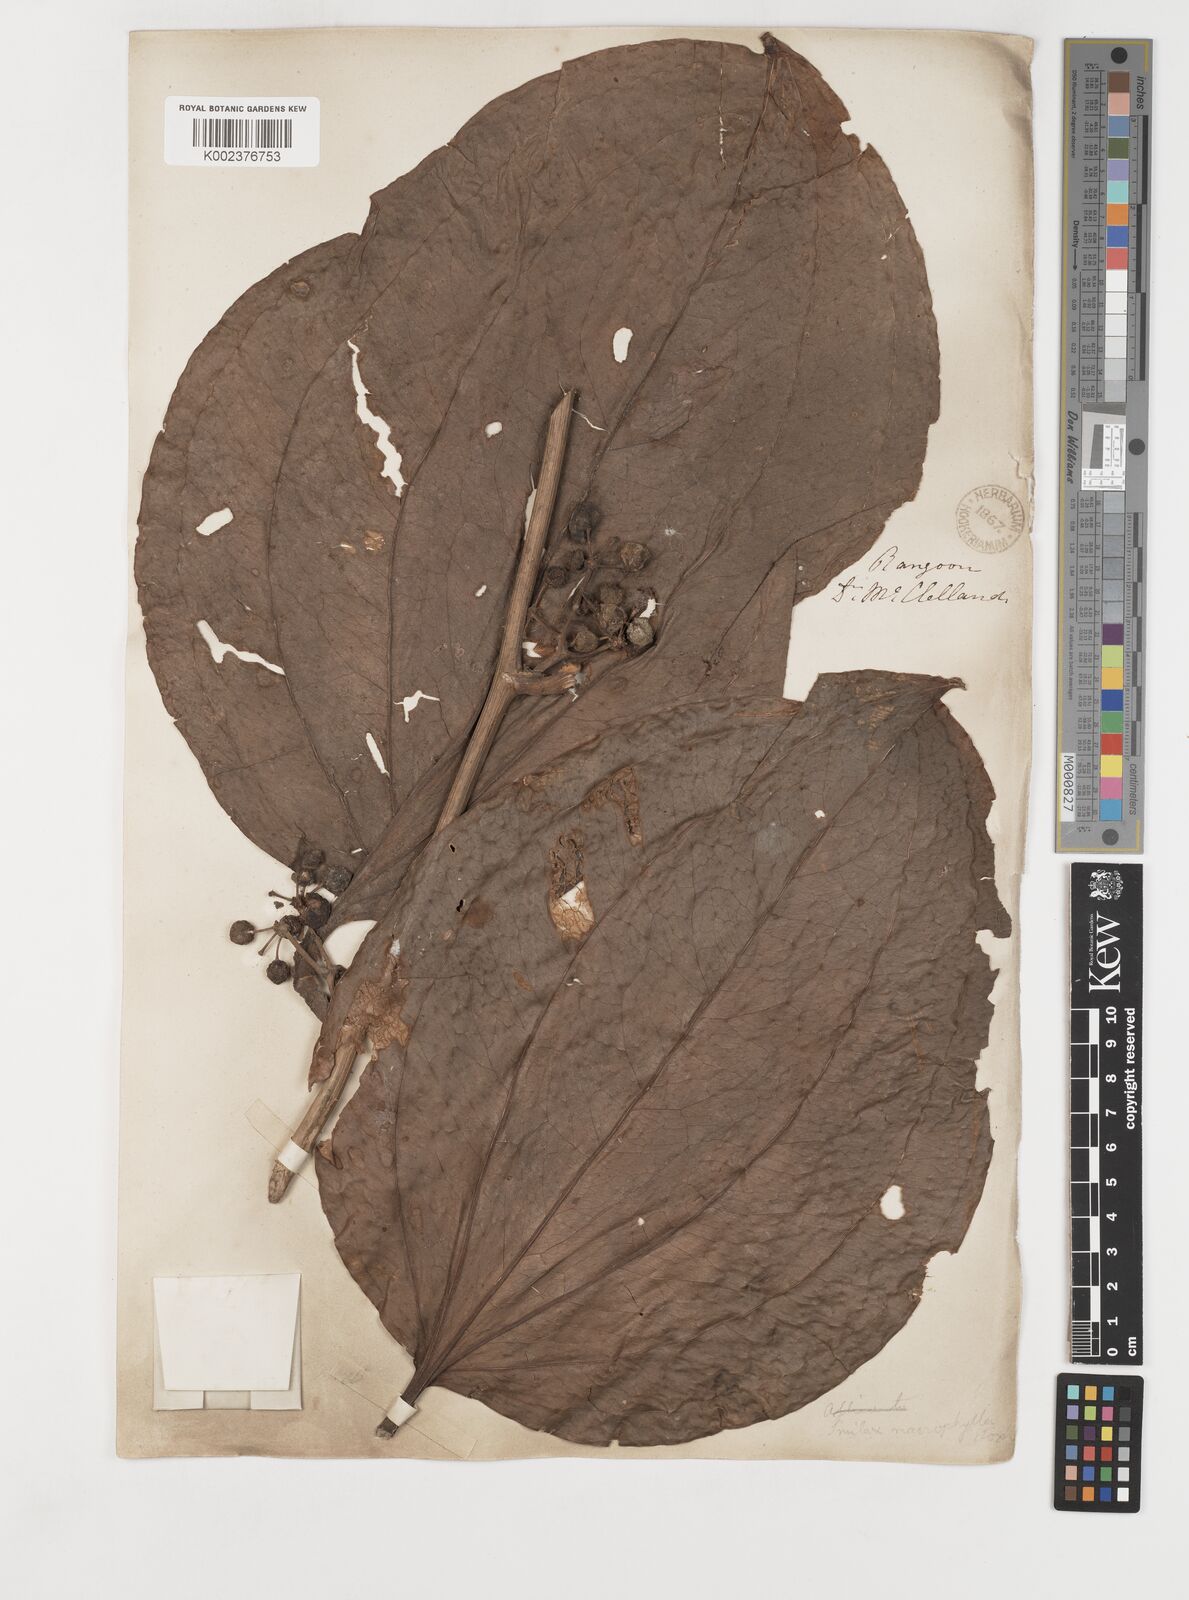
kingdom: Plantae
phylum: Tracheophyta
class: Liliopsida
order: Liliales
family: Smilacaceae
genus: Smilax
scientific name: Smilax ovalifolia
